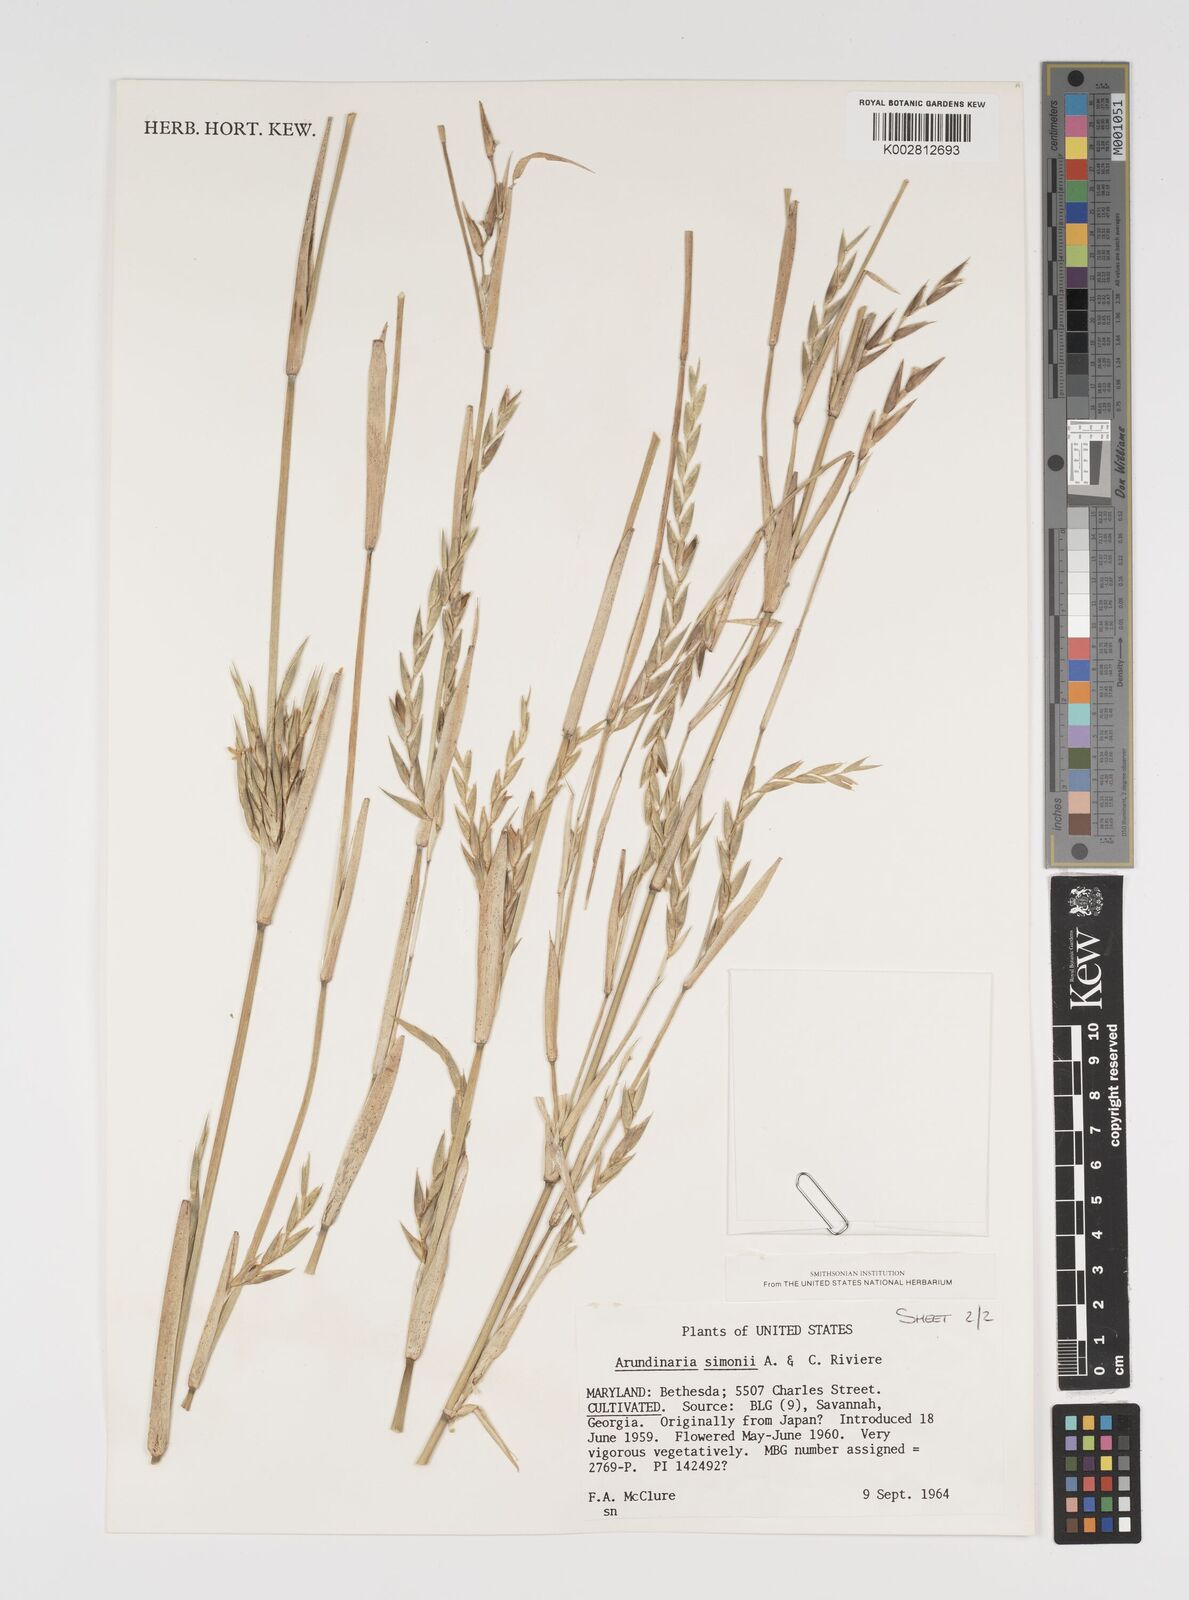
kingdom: Plantae
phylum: Tracheophyta
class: Liliopsida
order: Poales
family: Poaceae
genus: Arundinaria
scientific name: Arundinaria
